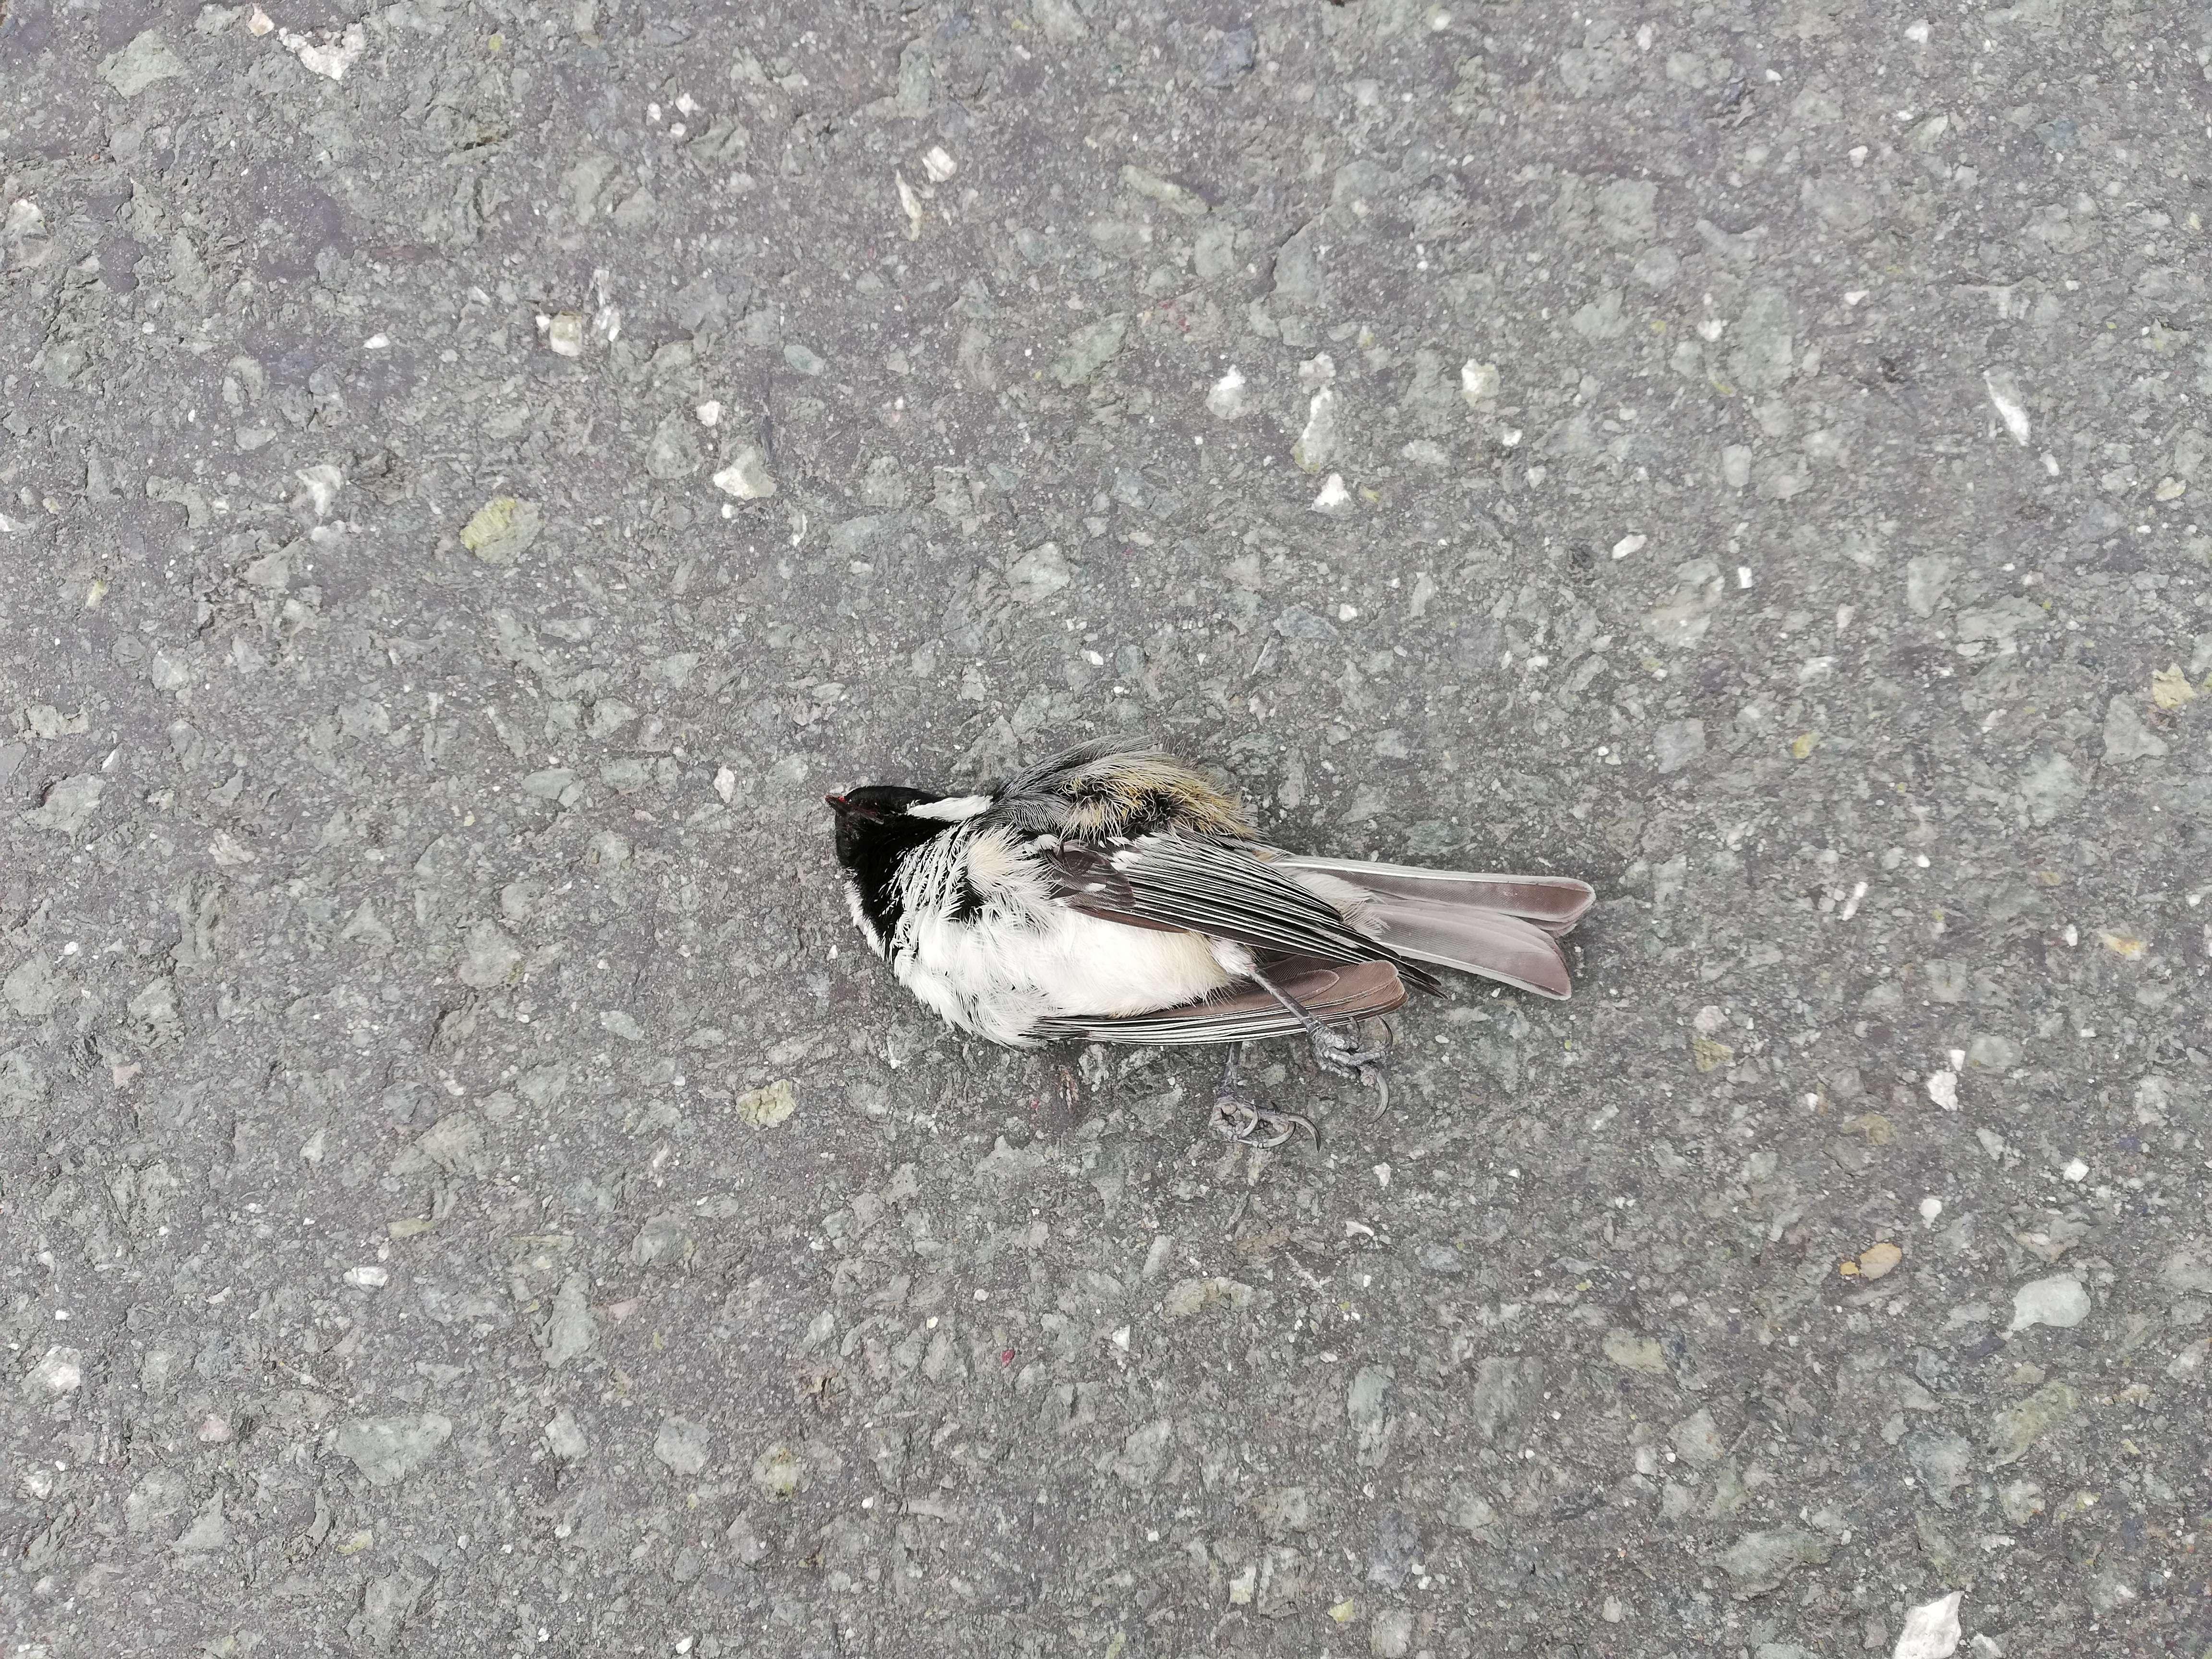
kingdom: Animalia
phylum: Chordata
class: Aves
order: Passeriformes
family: Paridae
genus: Periparus
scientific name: Periparus ater
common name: Coal tit
